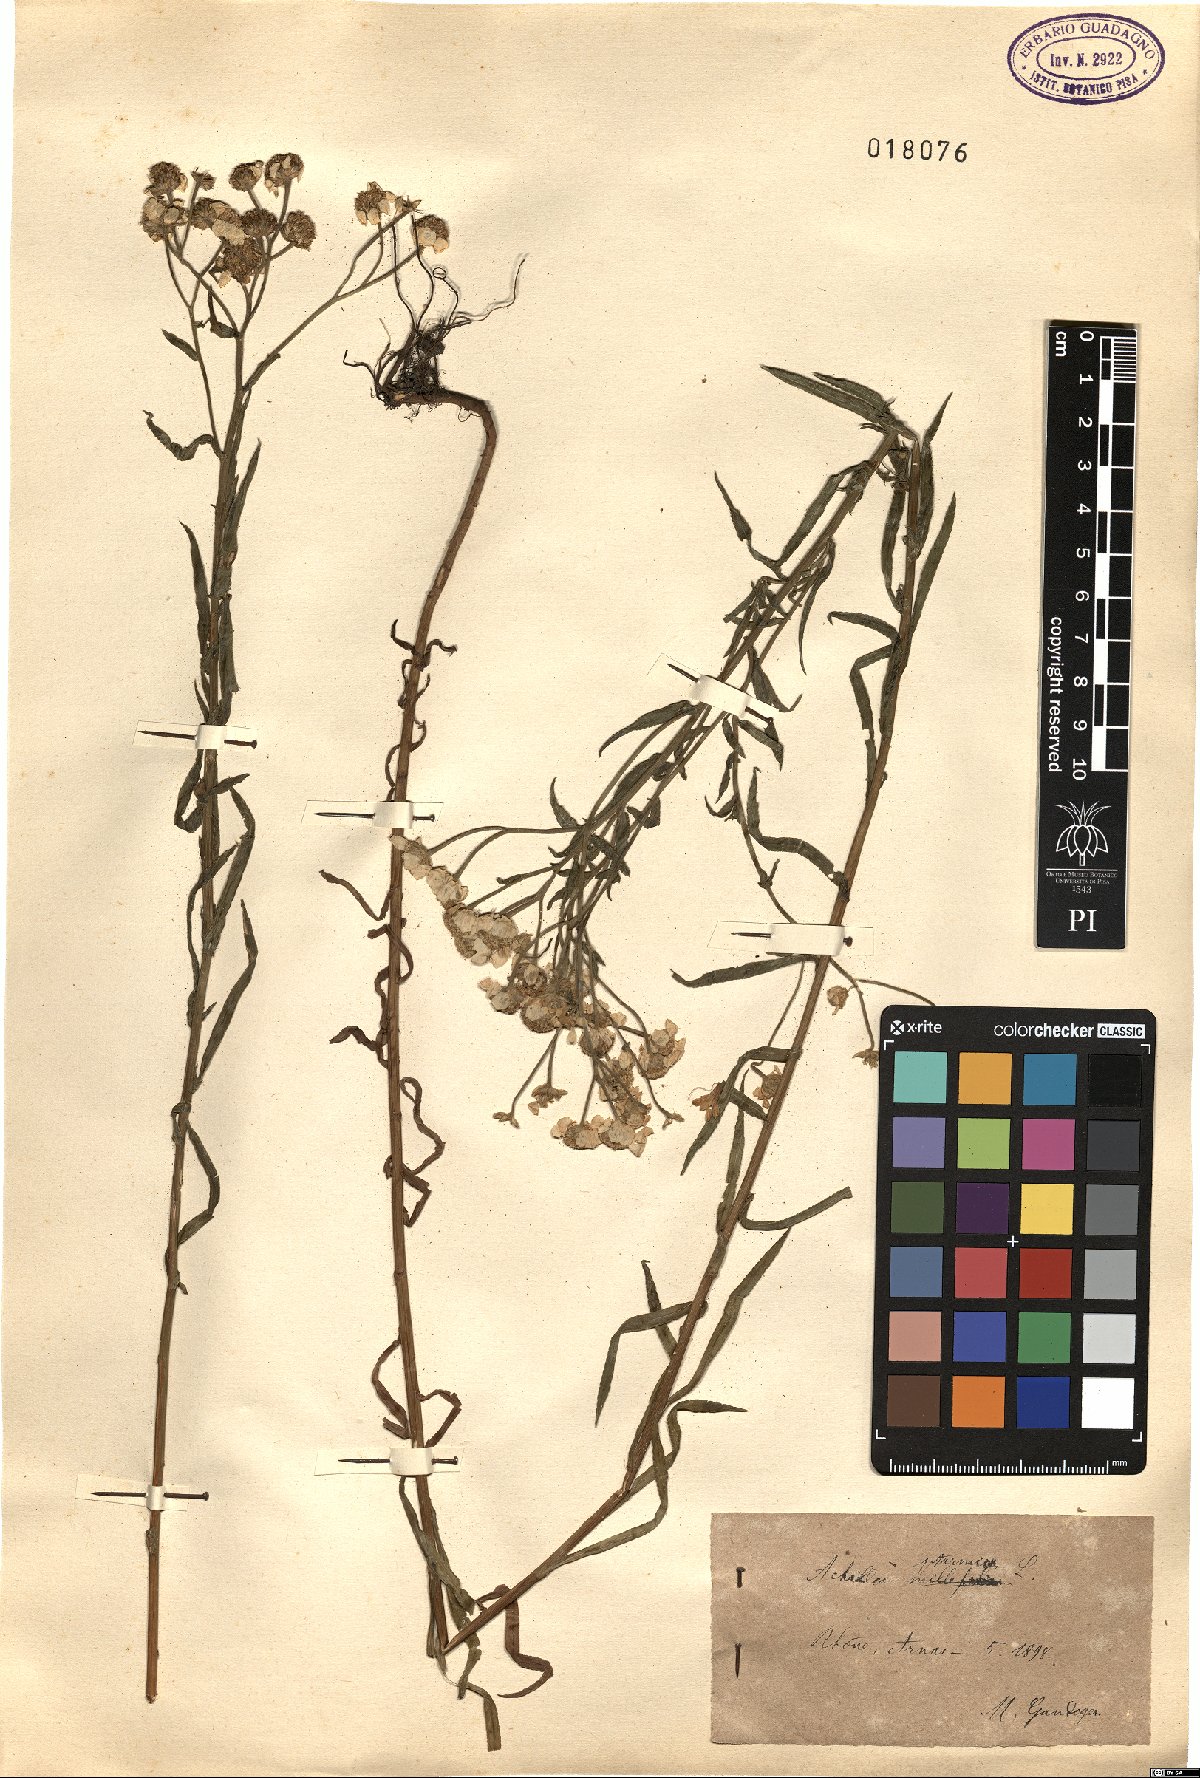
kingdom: Plantae
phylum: Tracheophyta
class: Magnoliopsida
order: Asterales
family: Asteraceae
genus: Achillea
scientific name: Achillea ptarmica
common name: Sneezeweed
